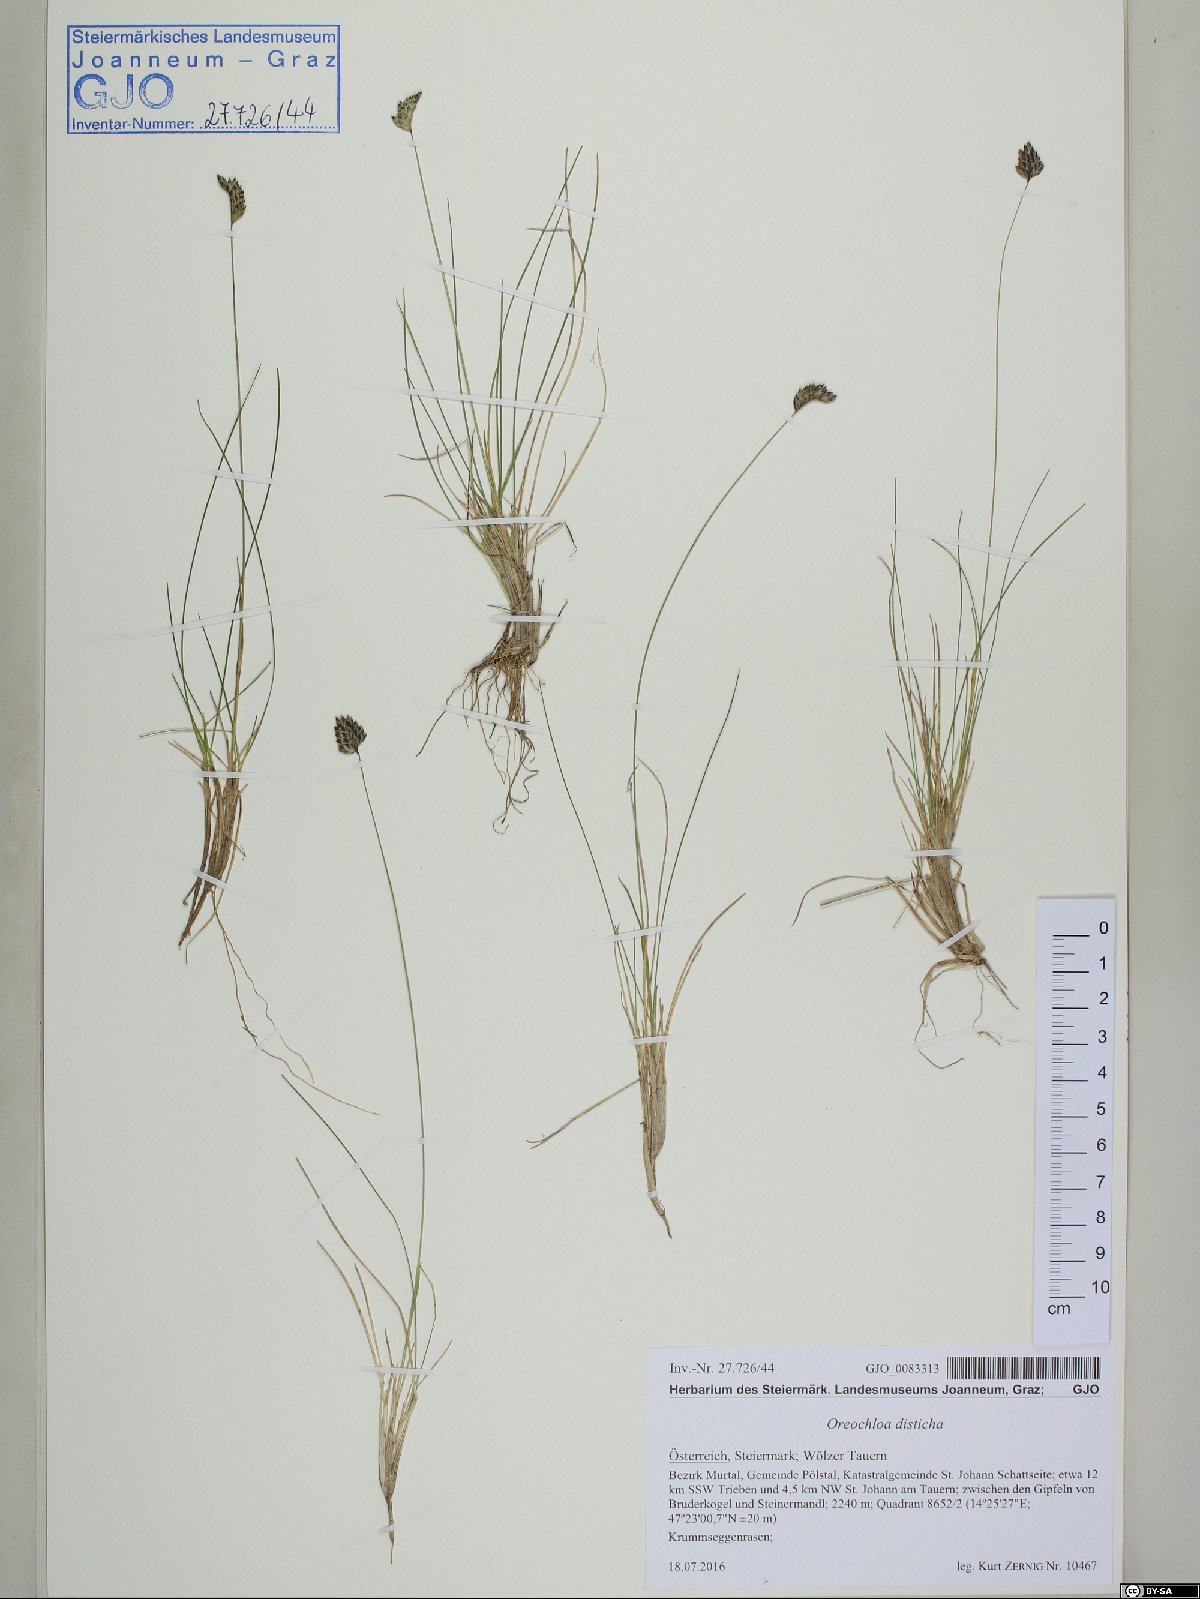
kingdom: Plantae
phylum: Tracheophyta
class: Liliopsida
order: Poales
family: Poaceae
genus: Oreochloa
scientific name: Oreochloa disticha
